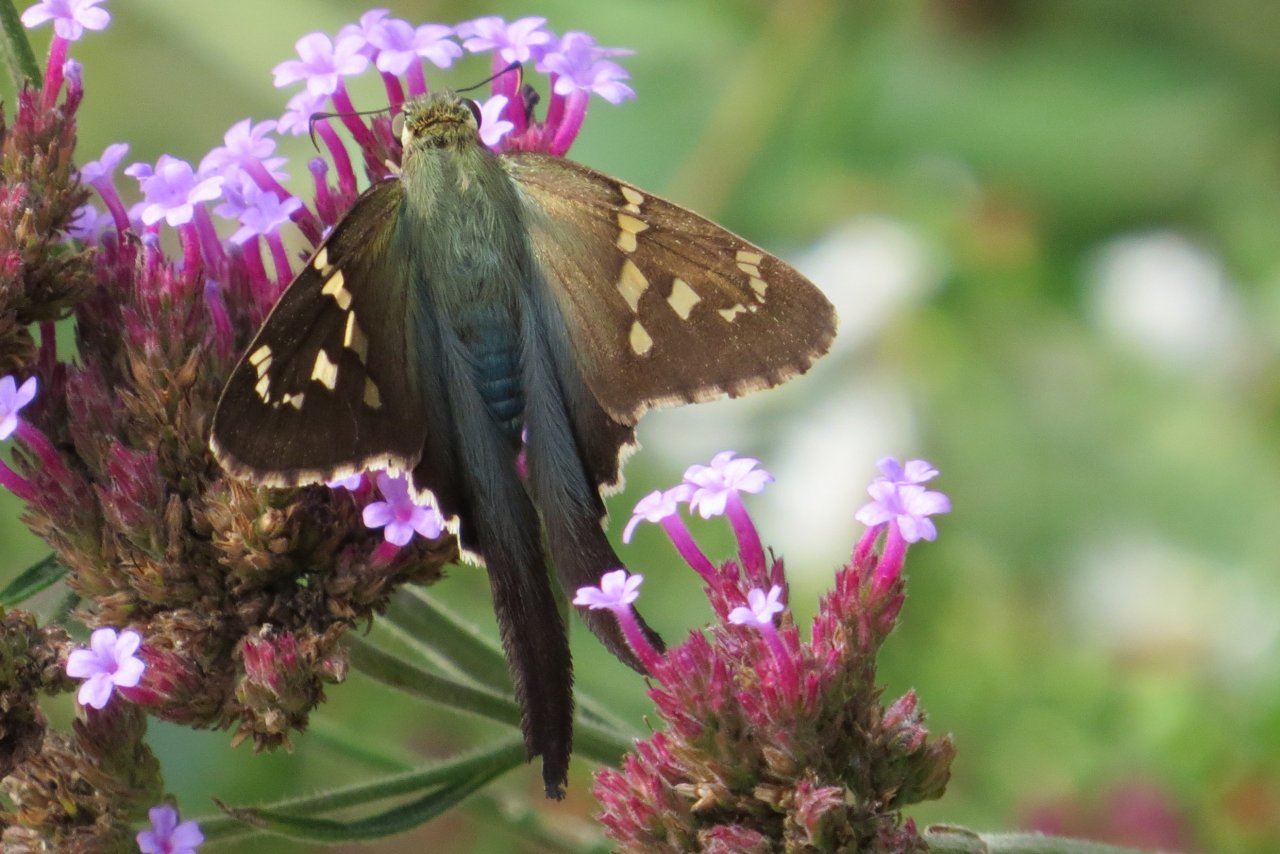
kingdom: Animalia
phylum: Arthropoda
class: Insecta
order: Lepidoptera
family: Hesperiidae
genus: Urbanus
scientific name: Urbanus proteus
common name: Long-tailed Skipper
